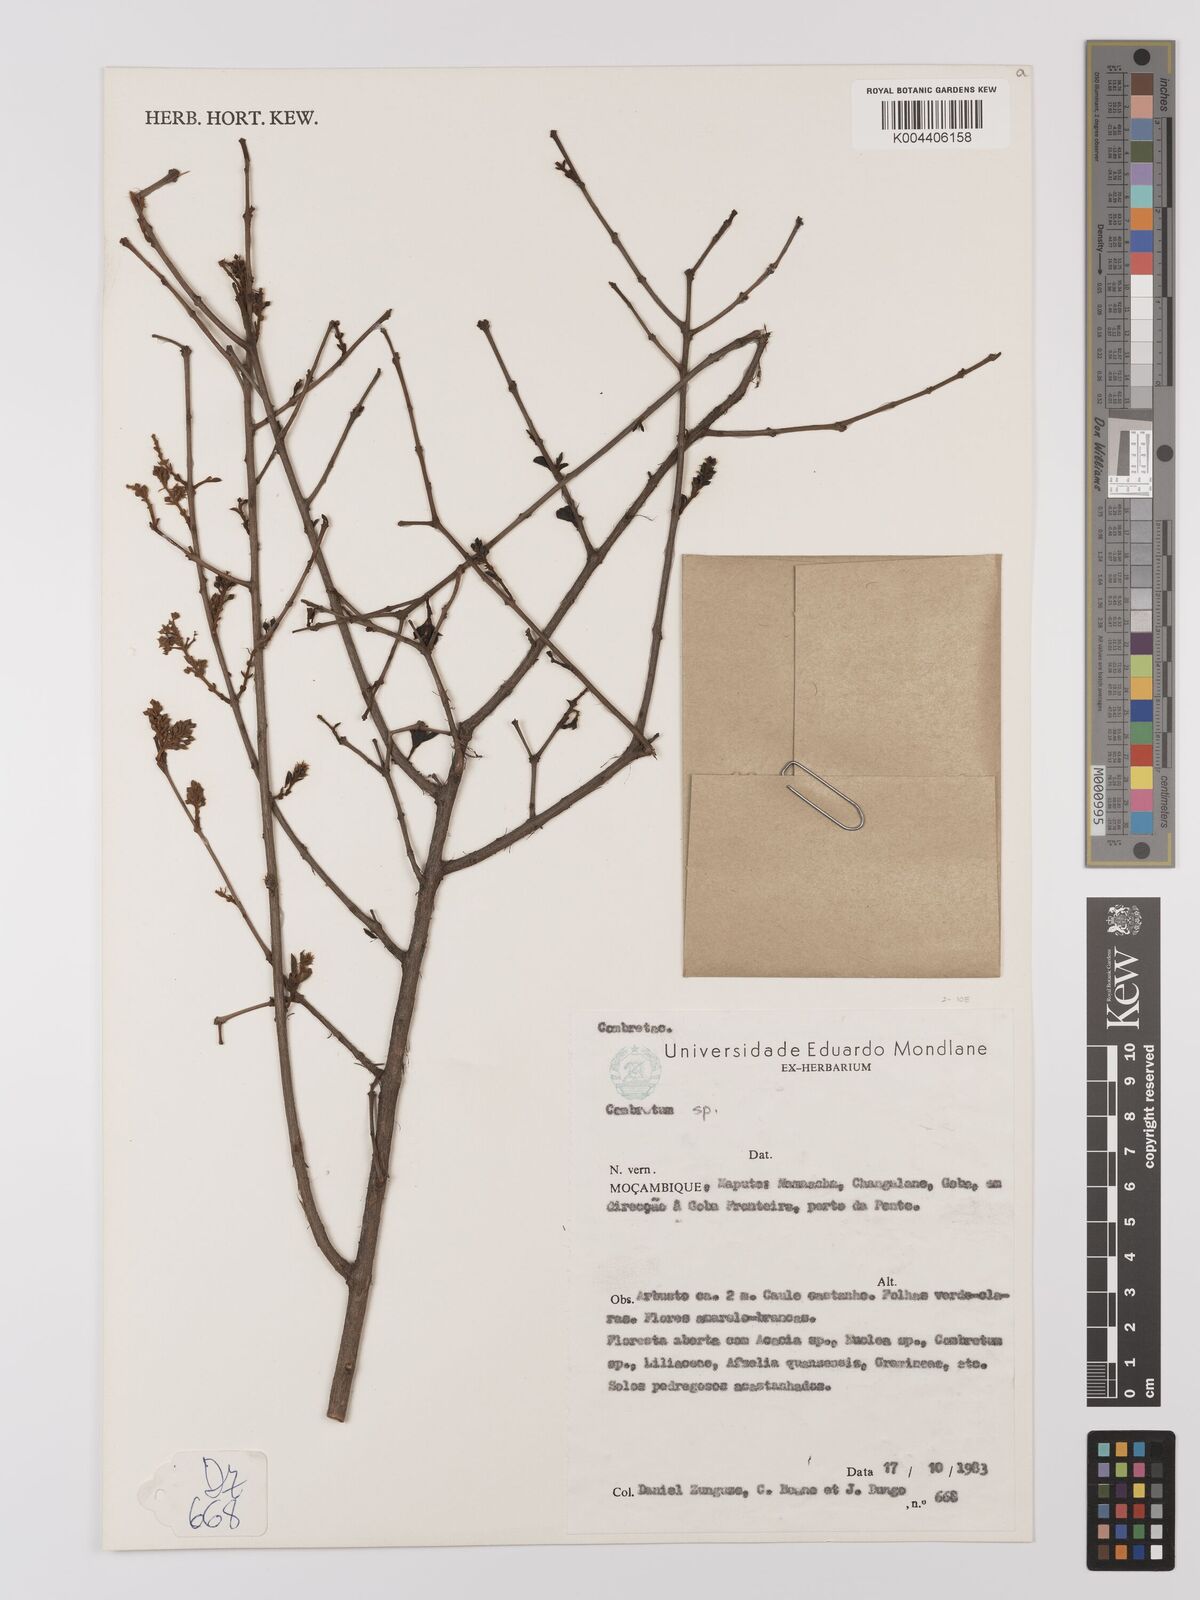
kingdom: Plantae
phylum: Tracheophyta
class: Magnoliopsida
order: Myrtales
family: Combretaceae
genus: Combretum
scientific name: Combretum
